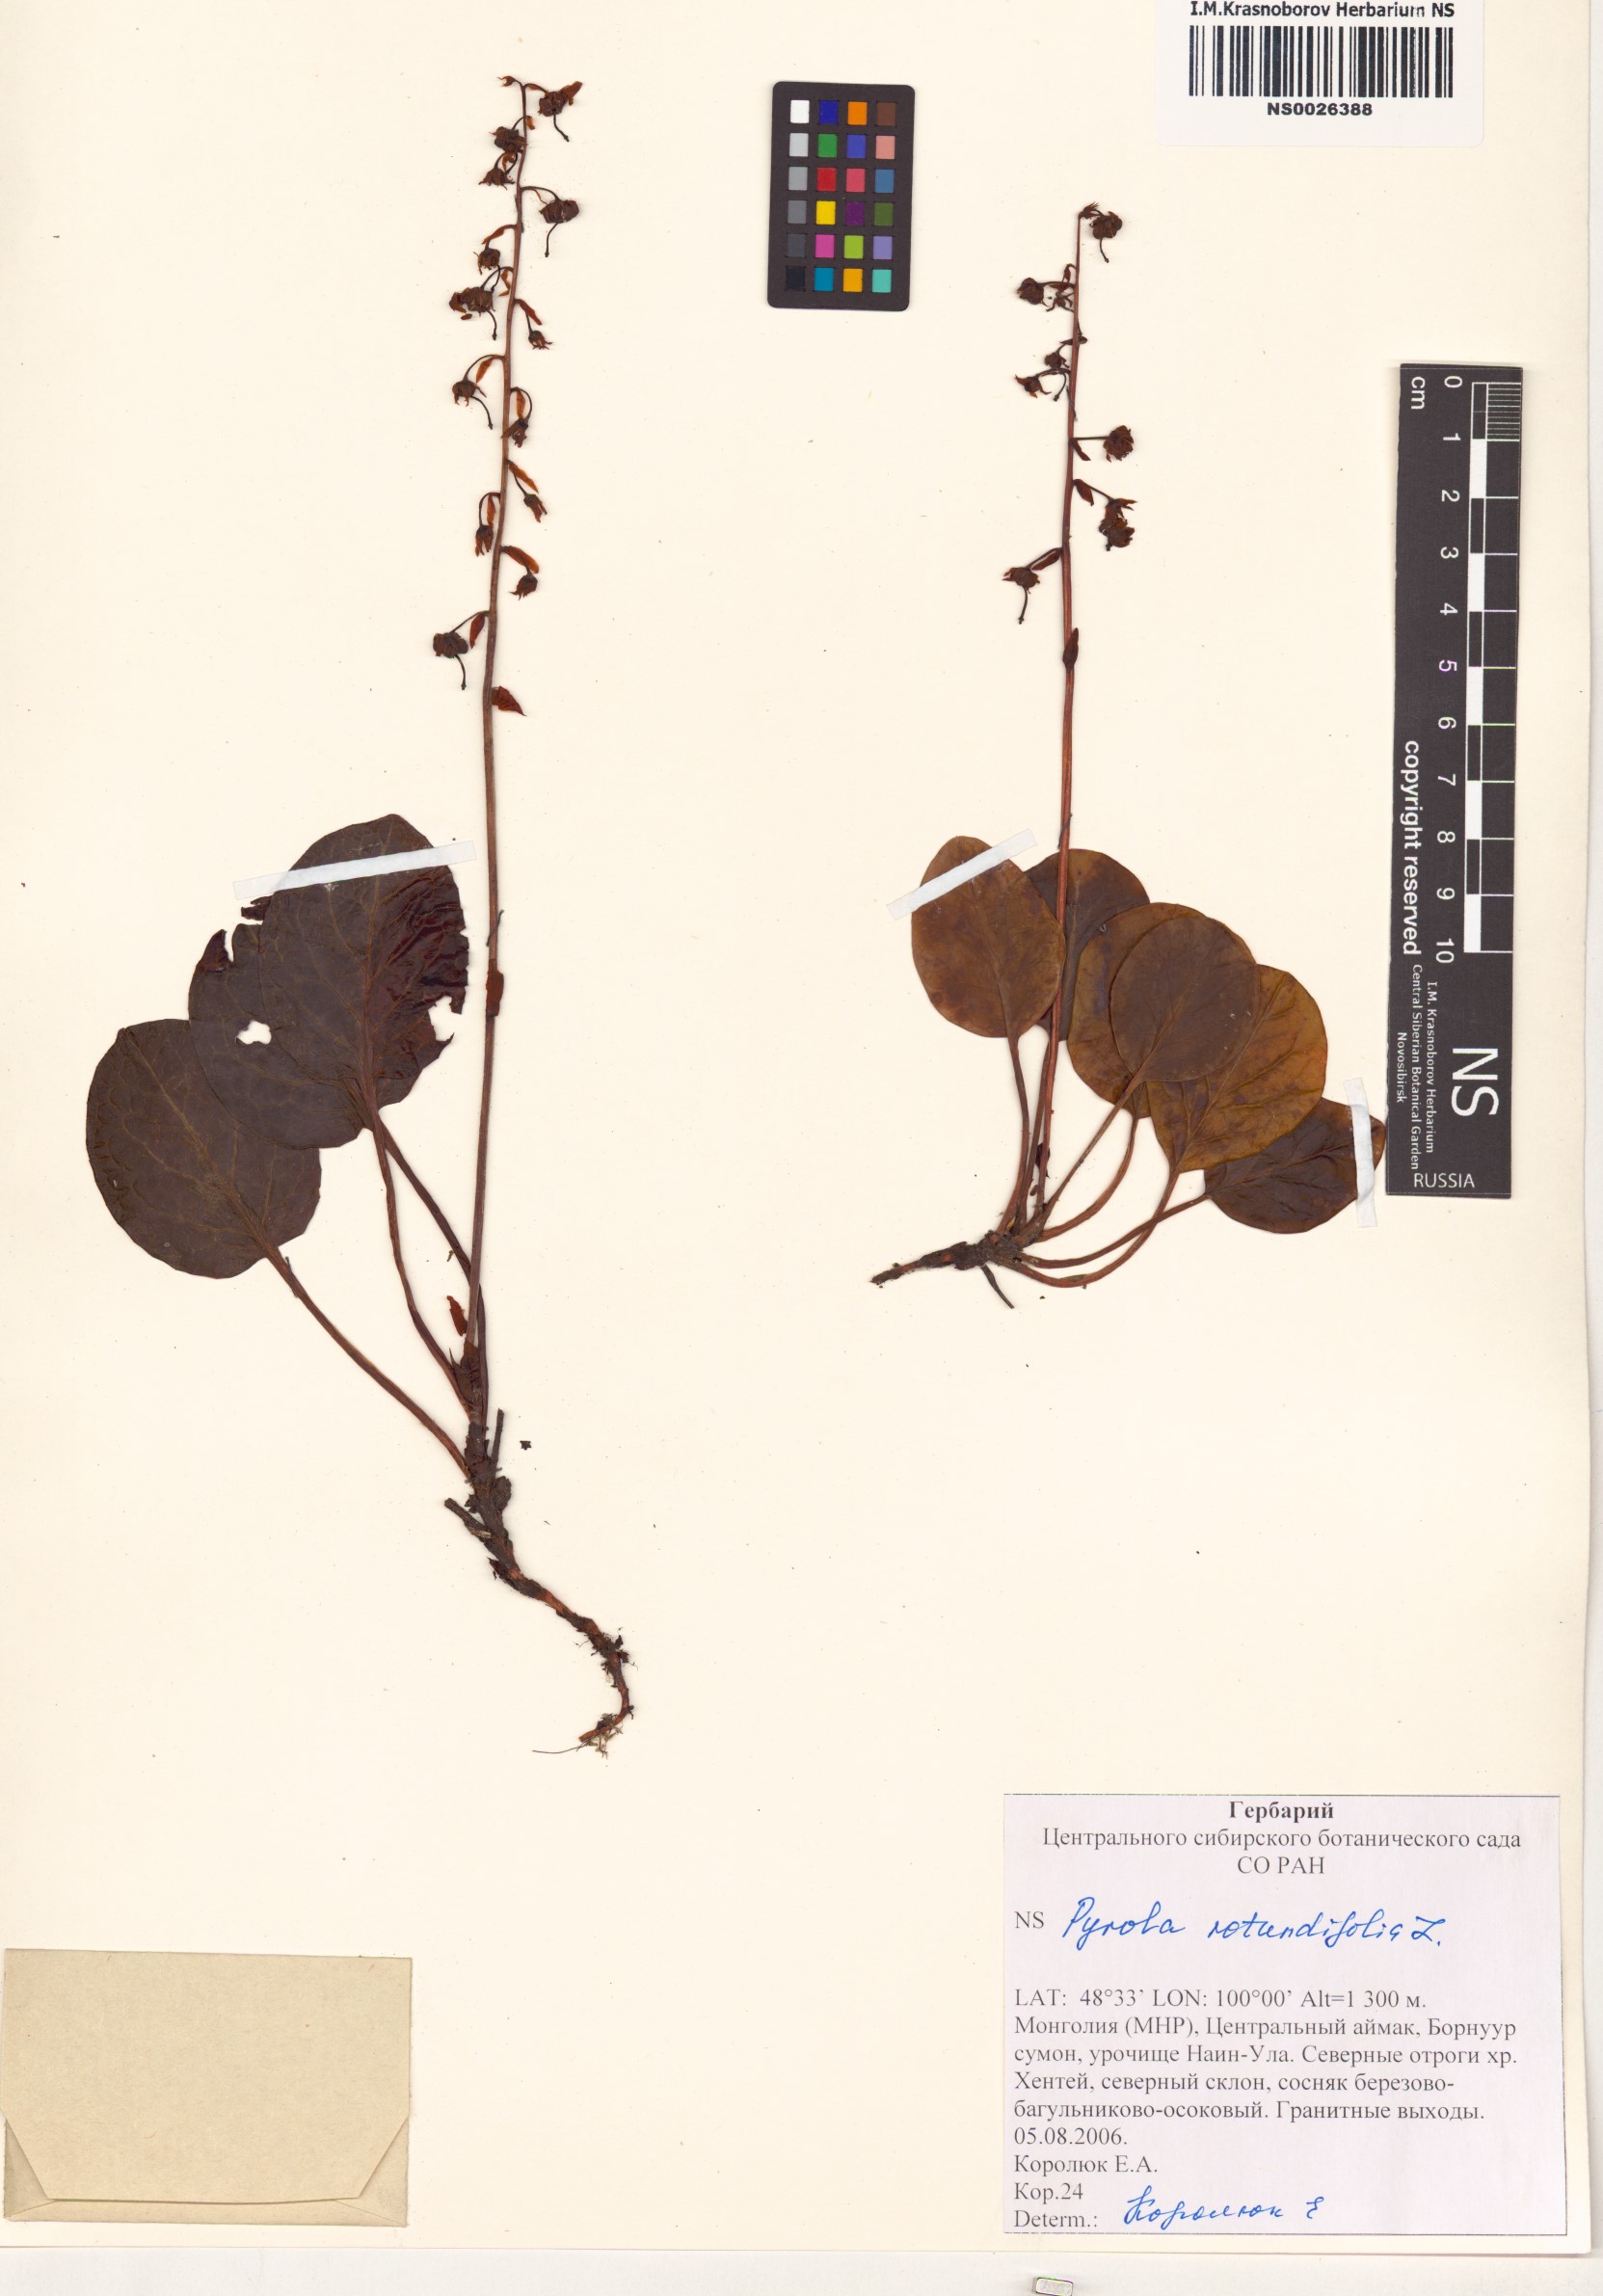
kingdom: Plantae
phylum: Tracheophyta
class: Magnoliopsida
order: Ericales
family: Ericaceae
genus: Pyrola
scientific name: Pyrola rotundifolia
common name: Round-leaved wintergreen
